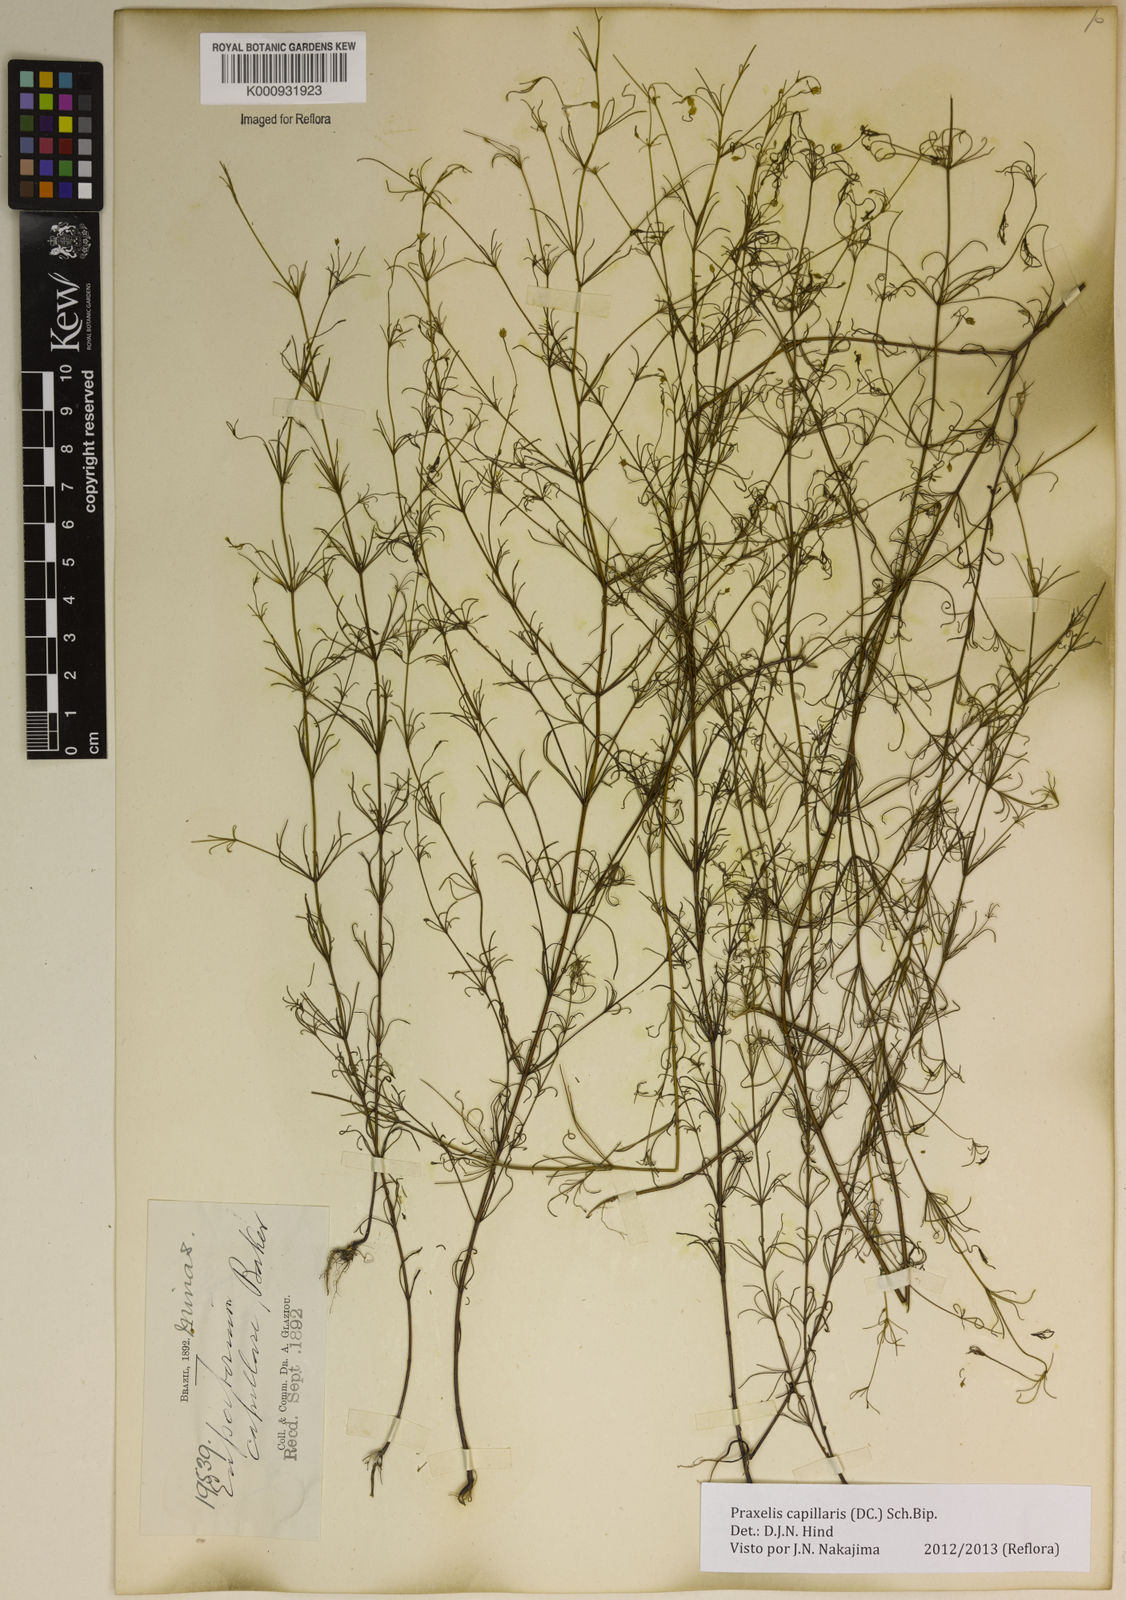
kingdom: Plantae
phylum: Tracheophyta
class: Magnoliopsida
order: Asterales
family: Asteraceae
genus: Praxelis
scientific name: Praxelis capillaris
